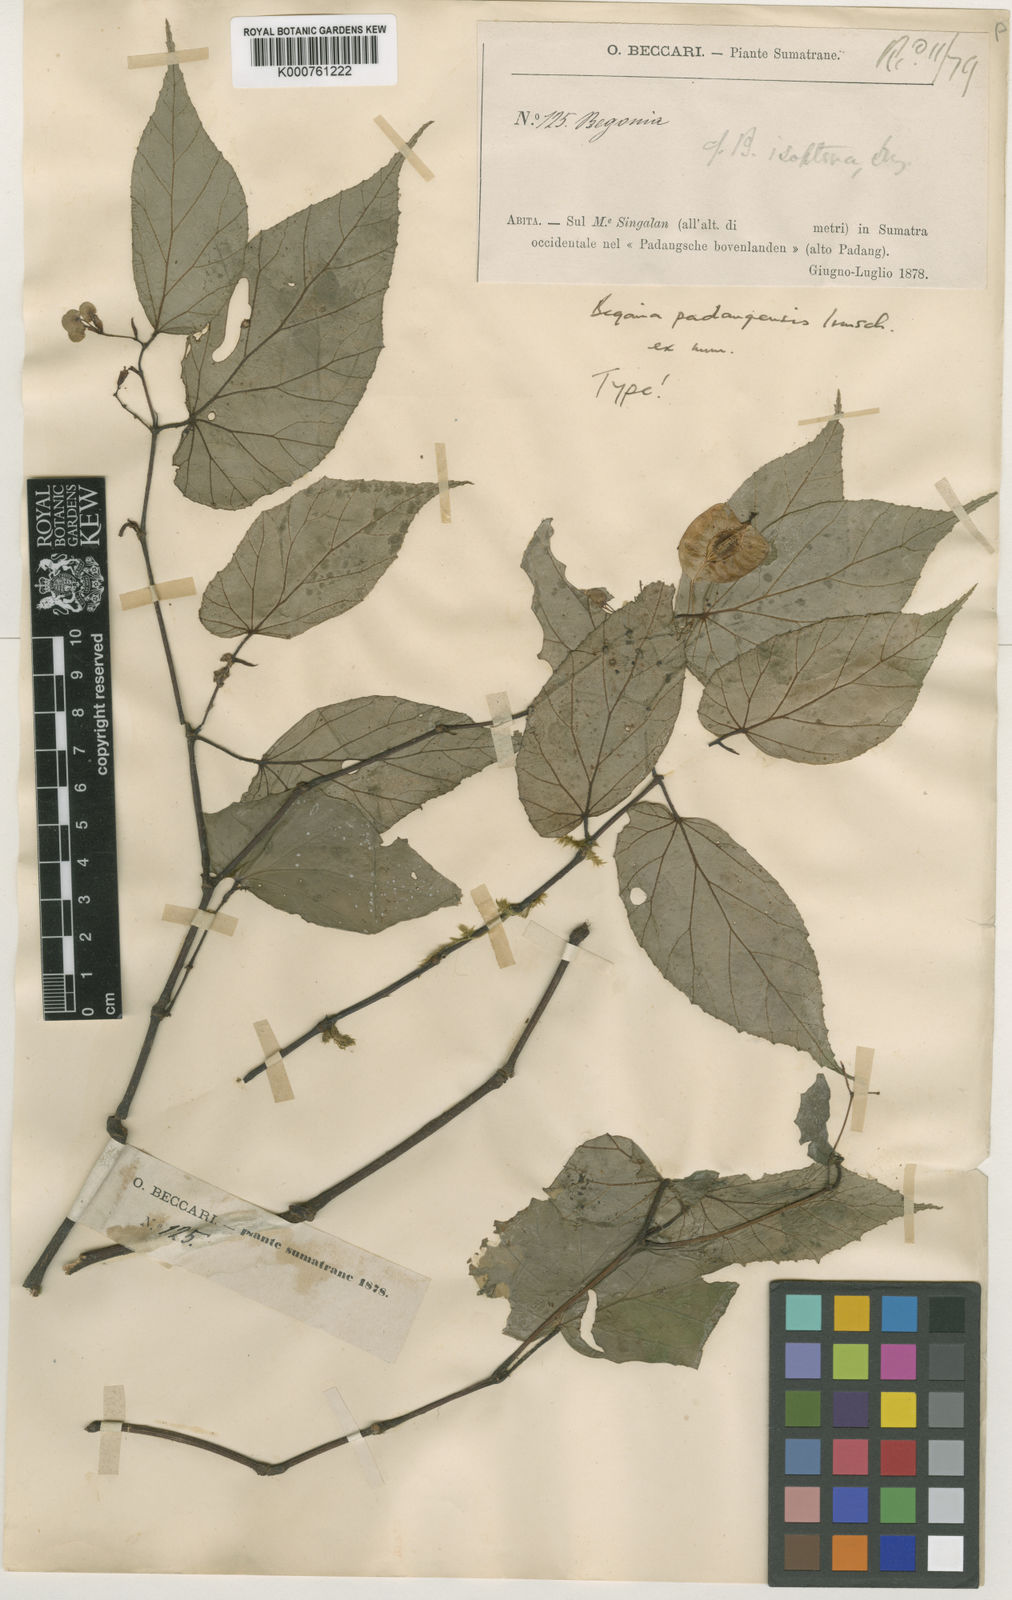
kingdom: Plantae
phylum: Tracheophyta
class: Magnoliopsida
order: Cucurbitales
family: Begoniaceae
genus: Begonia
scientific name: Begonia padangensis
